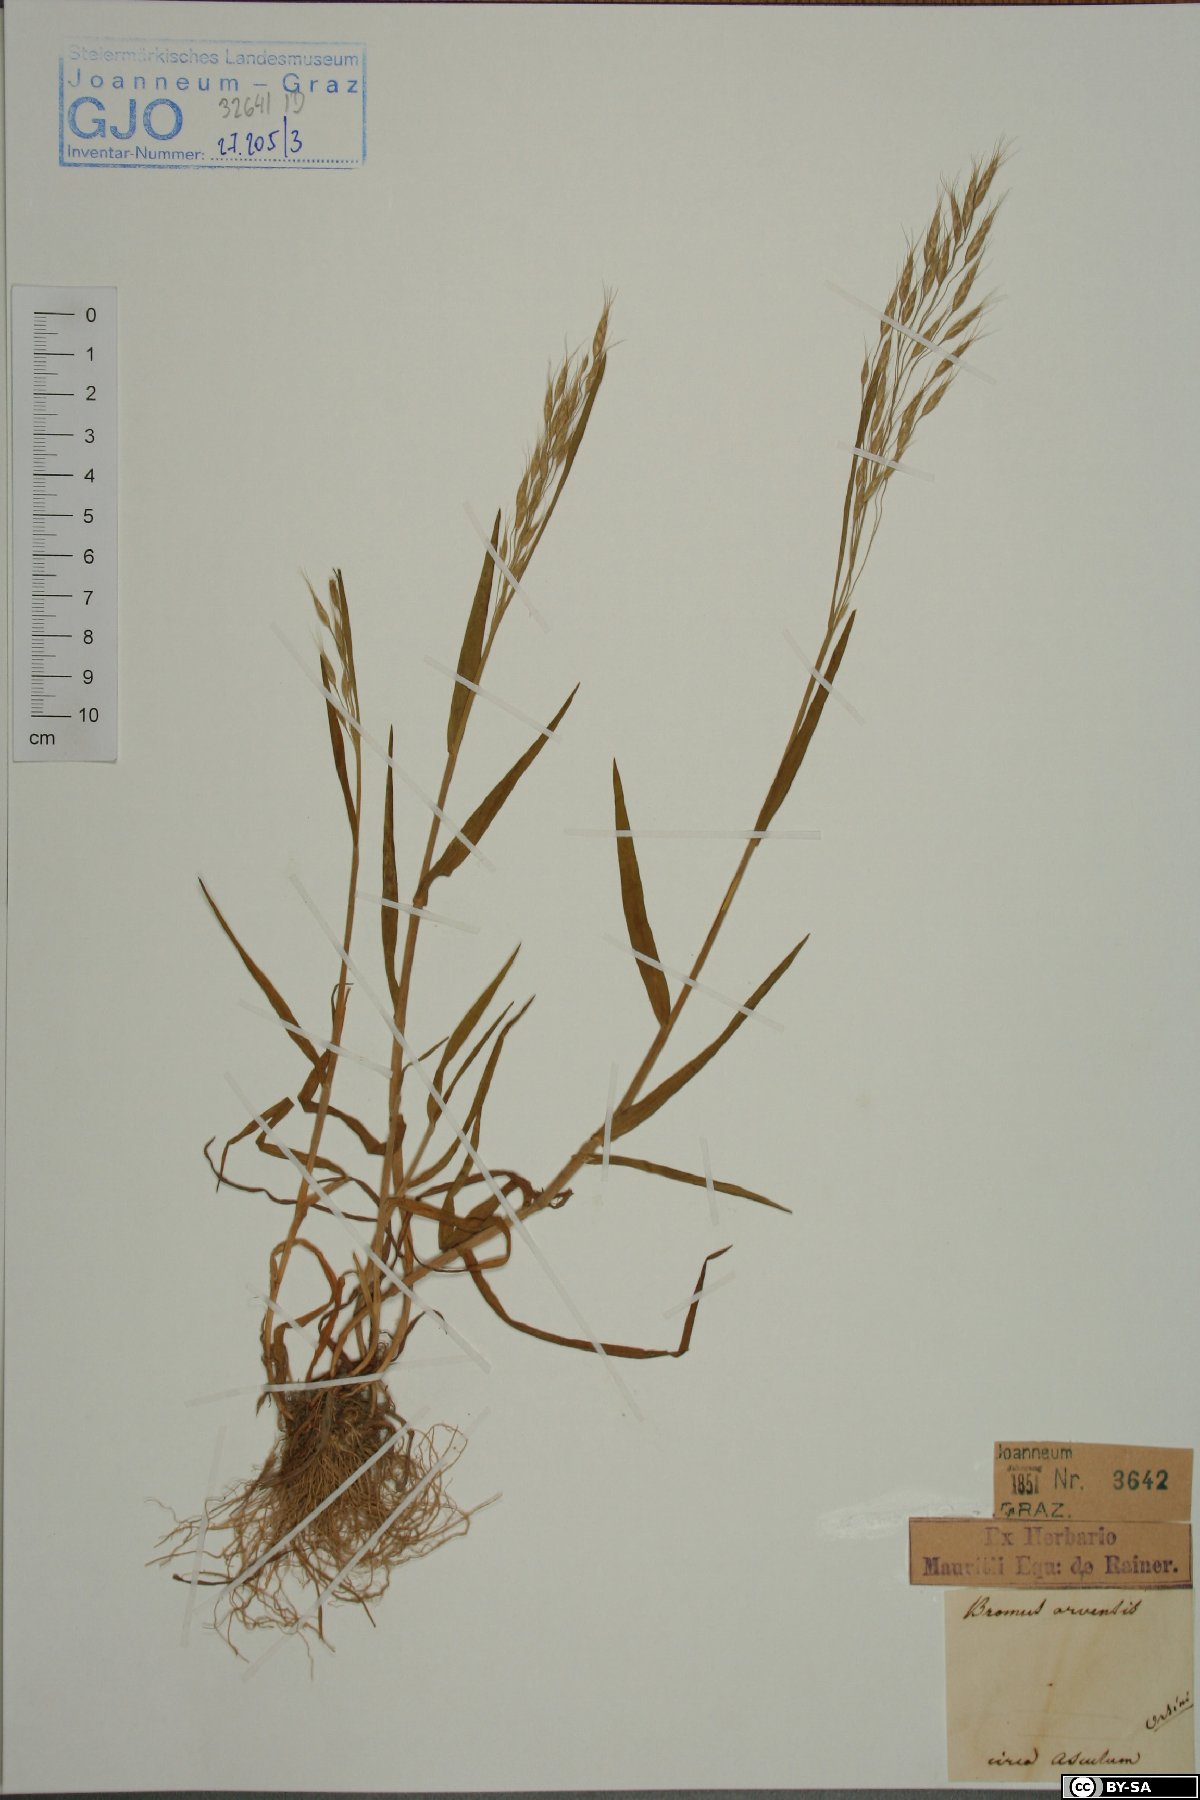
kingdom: Plantae
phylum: Tracheophyta
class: Liliopsida
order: Poales
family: Poaceae
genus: Bromus
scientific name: Bromus arvensis
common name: Field brome
